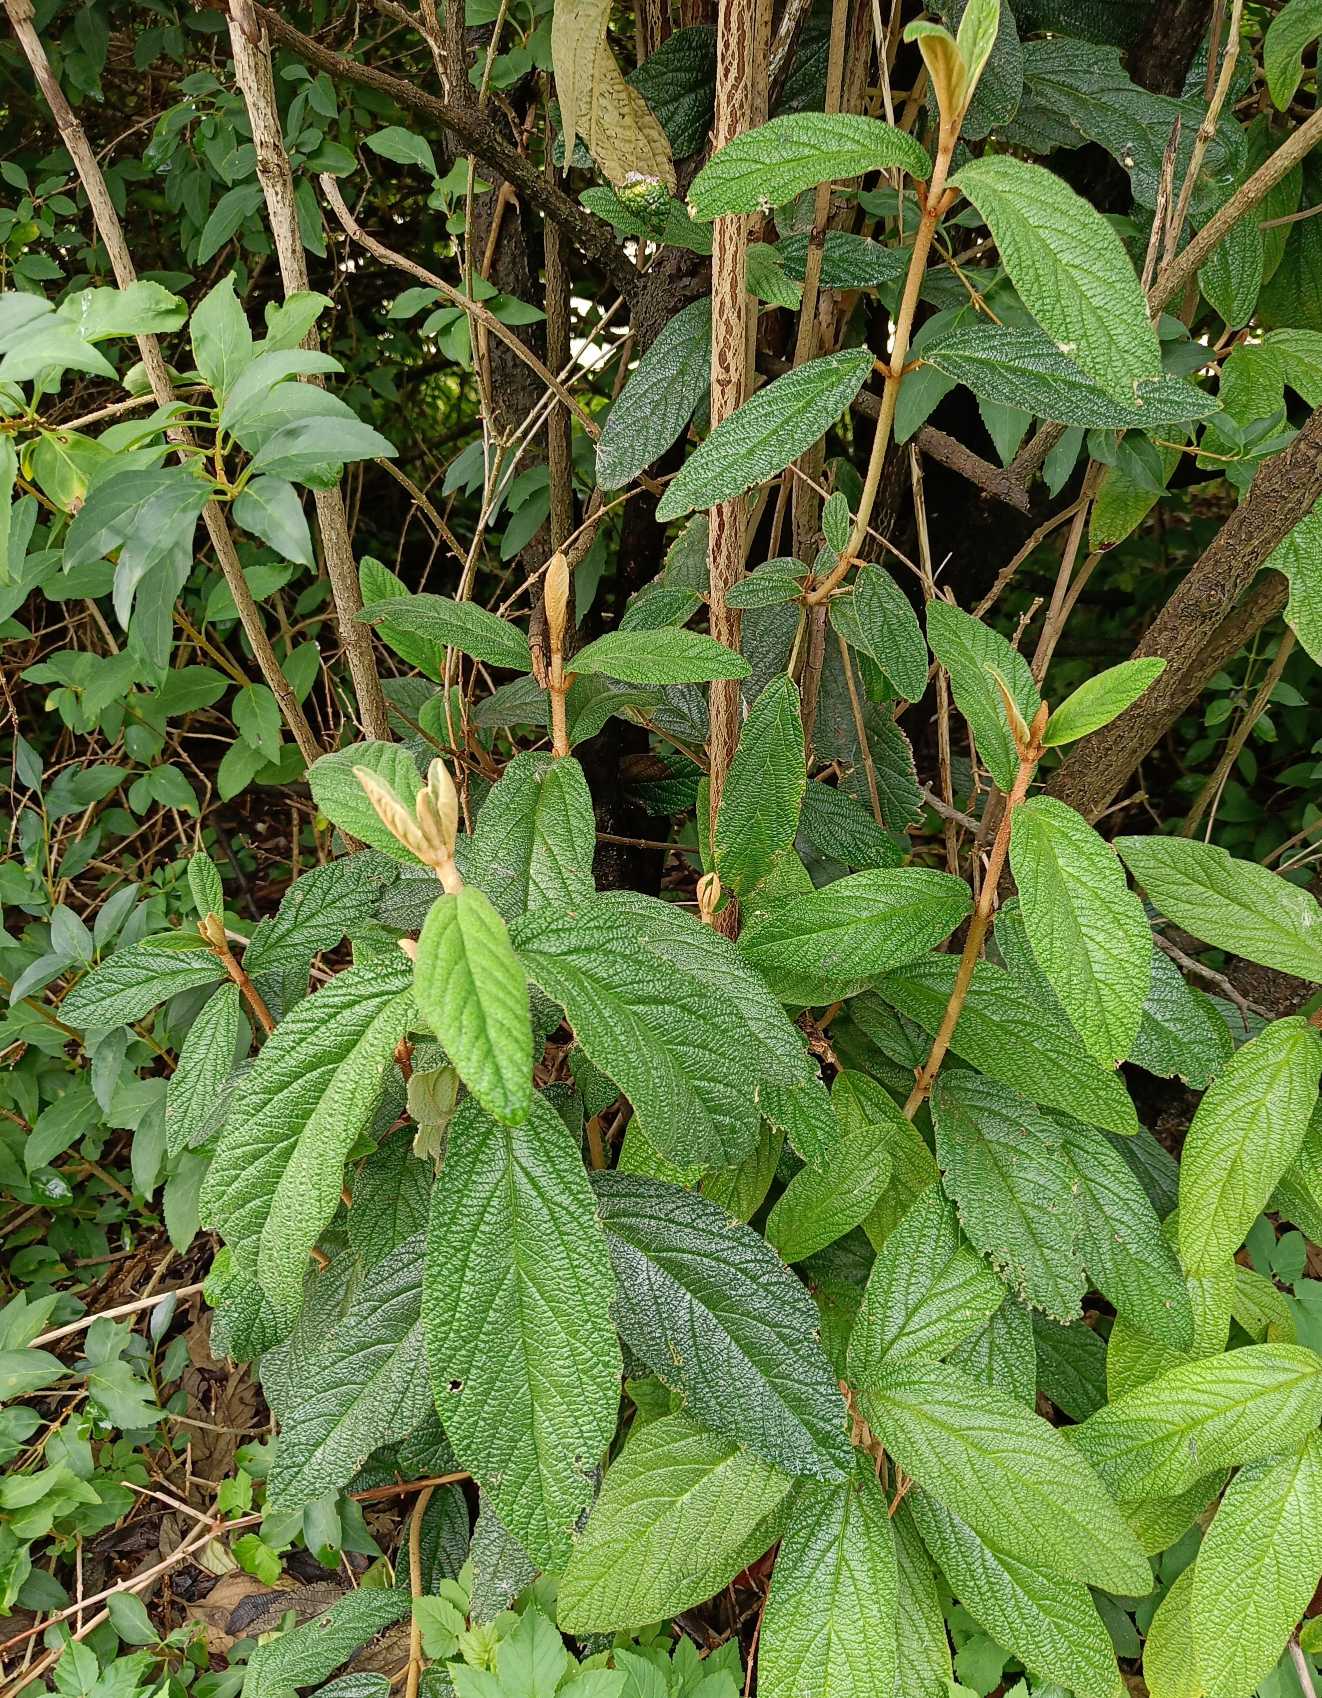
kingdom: Plantae
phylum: Tracheophyta
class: Magnoliopsida
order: Dipsacales
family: Viburnaceae
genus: Viburnum
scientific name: Viburnum rhytidophyllum
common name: Rynkeblad
